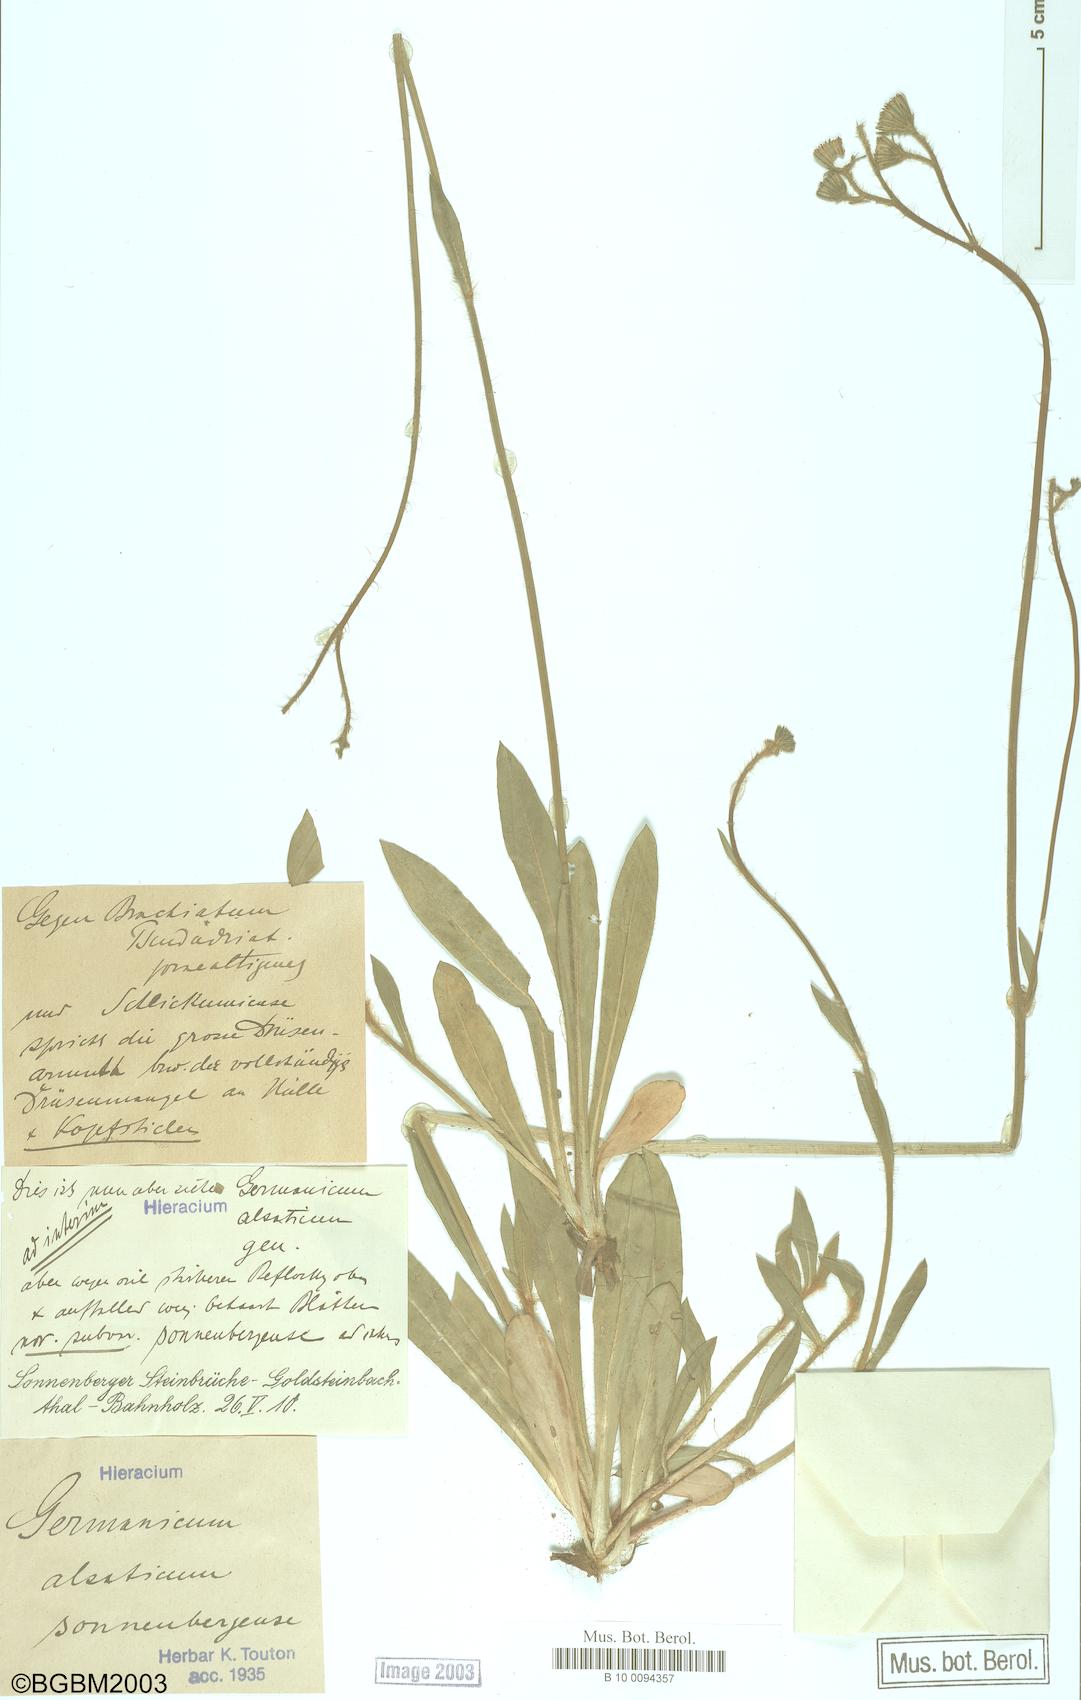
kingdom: Plantae
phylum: Tracheophyta
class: Magnoliopsida
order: Asterales
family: Asteraceae
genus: Pilosella
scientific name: Pilosella anchusoides
